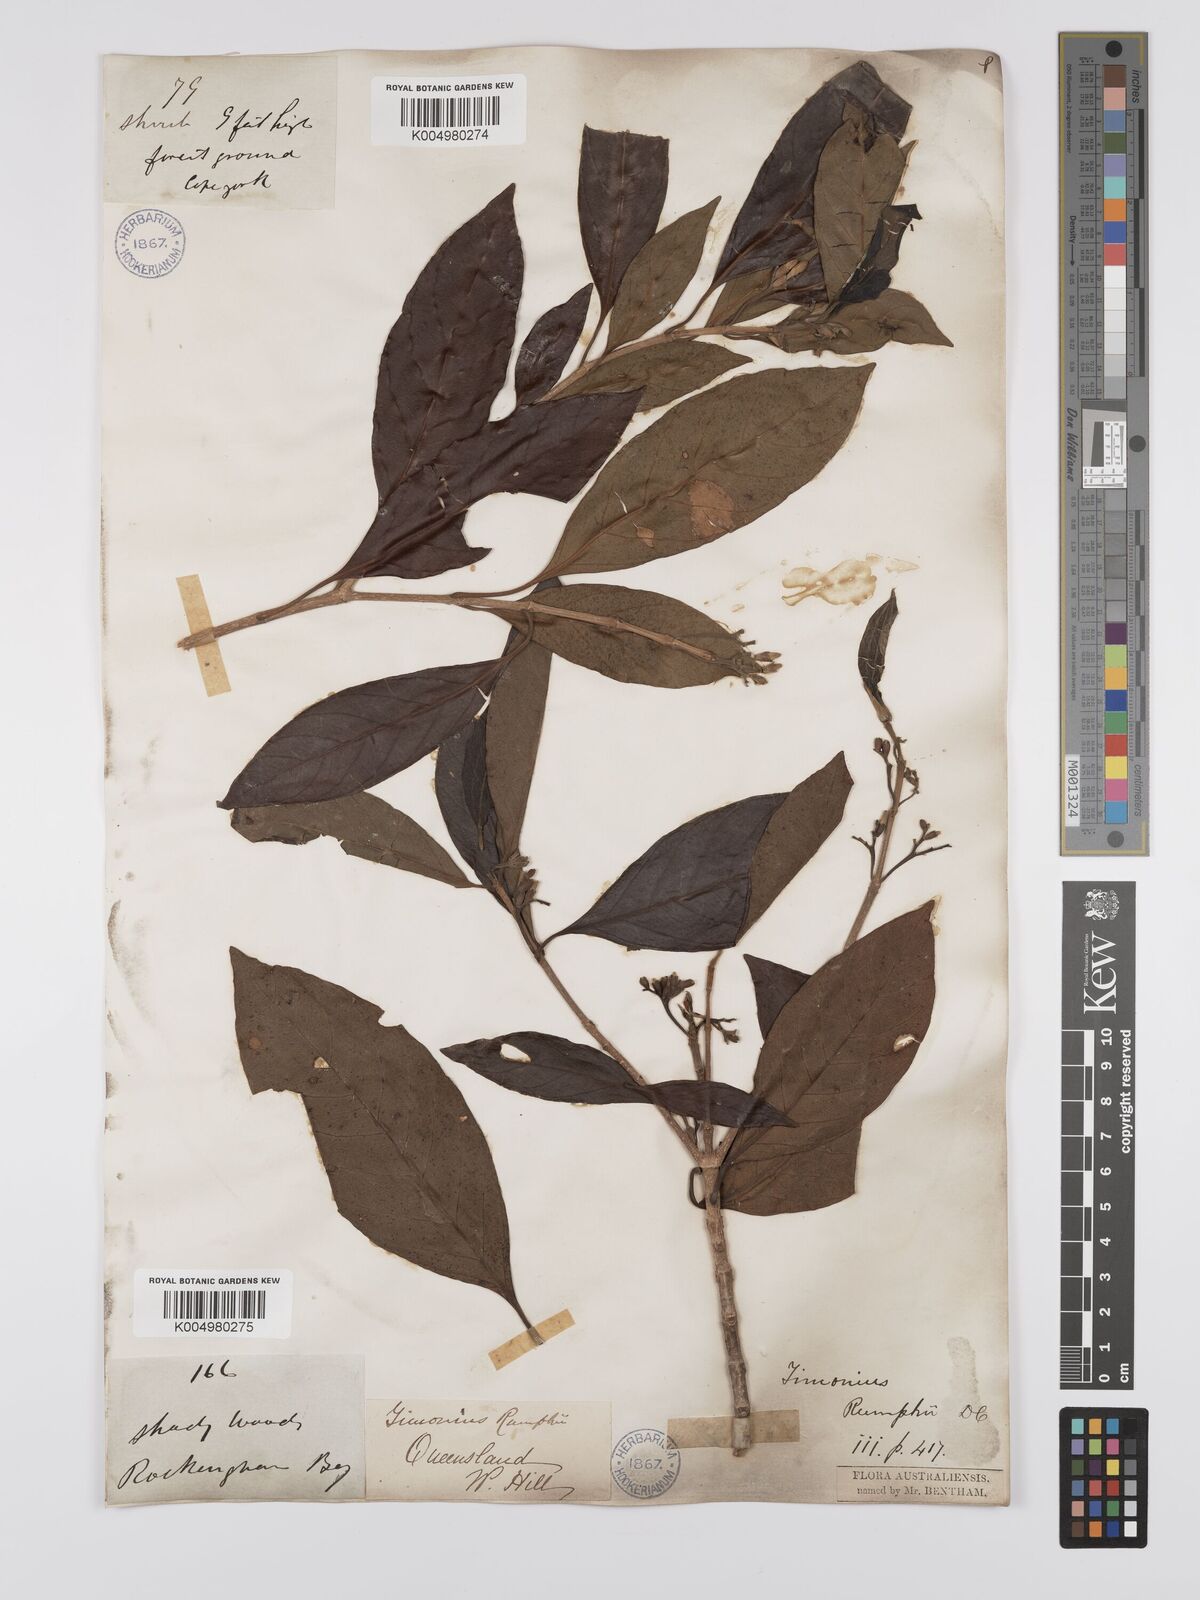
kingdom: Plantae
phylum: Tracheophyta
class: Magnoliopsida
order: Gentianales
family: Rubiaceae
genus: Timonius
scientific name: Timonius timon
